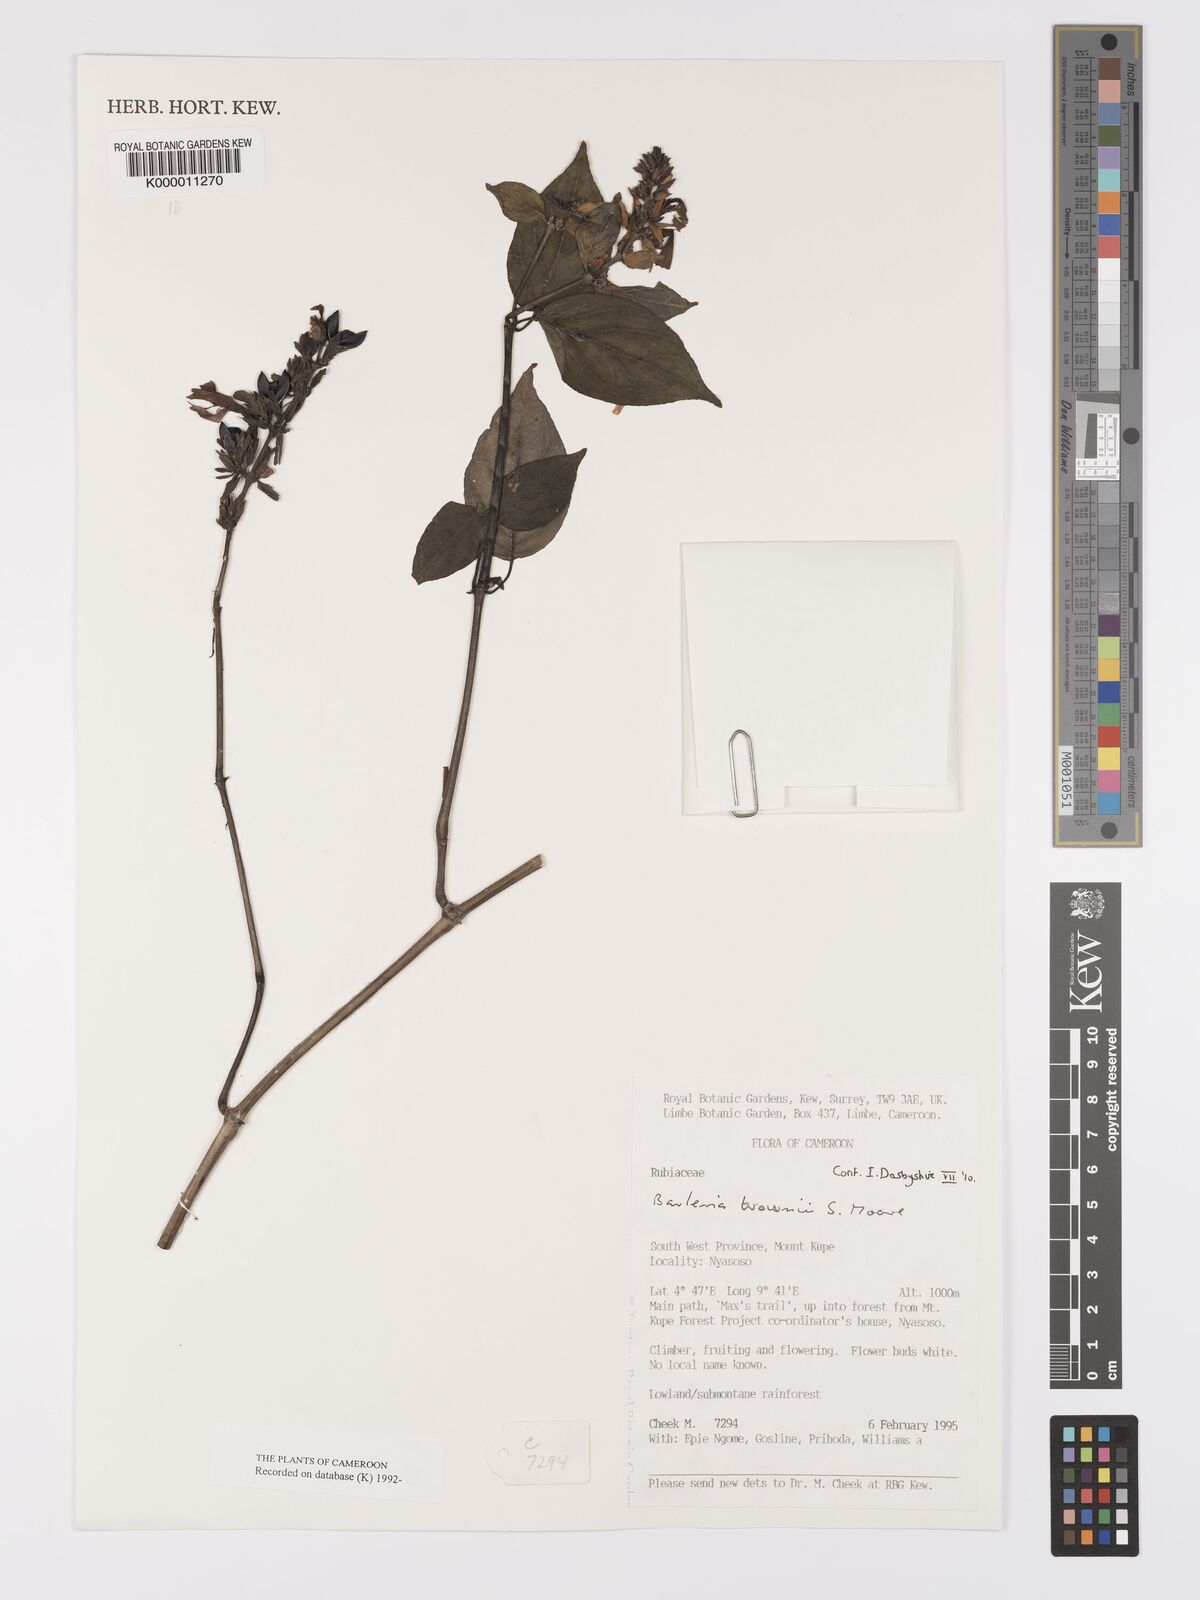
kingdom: Plantae
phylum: Tracheophyta
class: Magnoliopsida
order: Lamiales
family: Acanthaceae
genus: Barleria
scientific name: Barleria brownii
